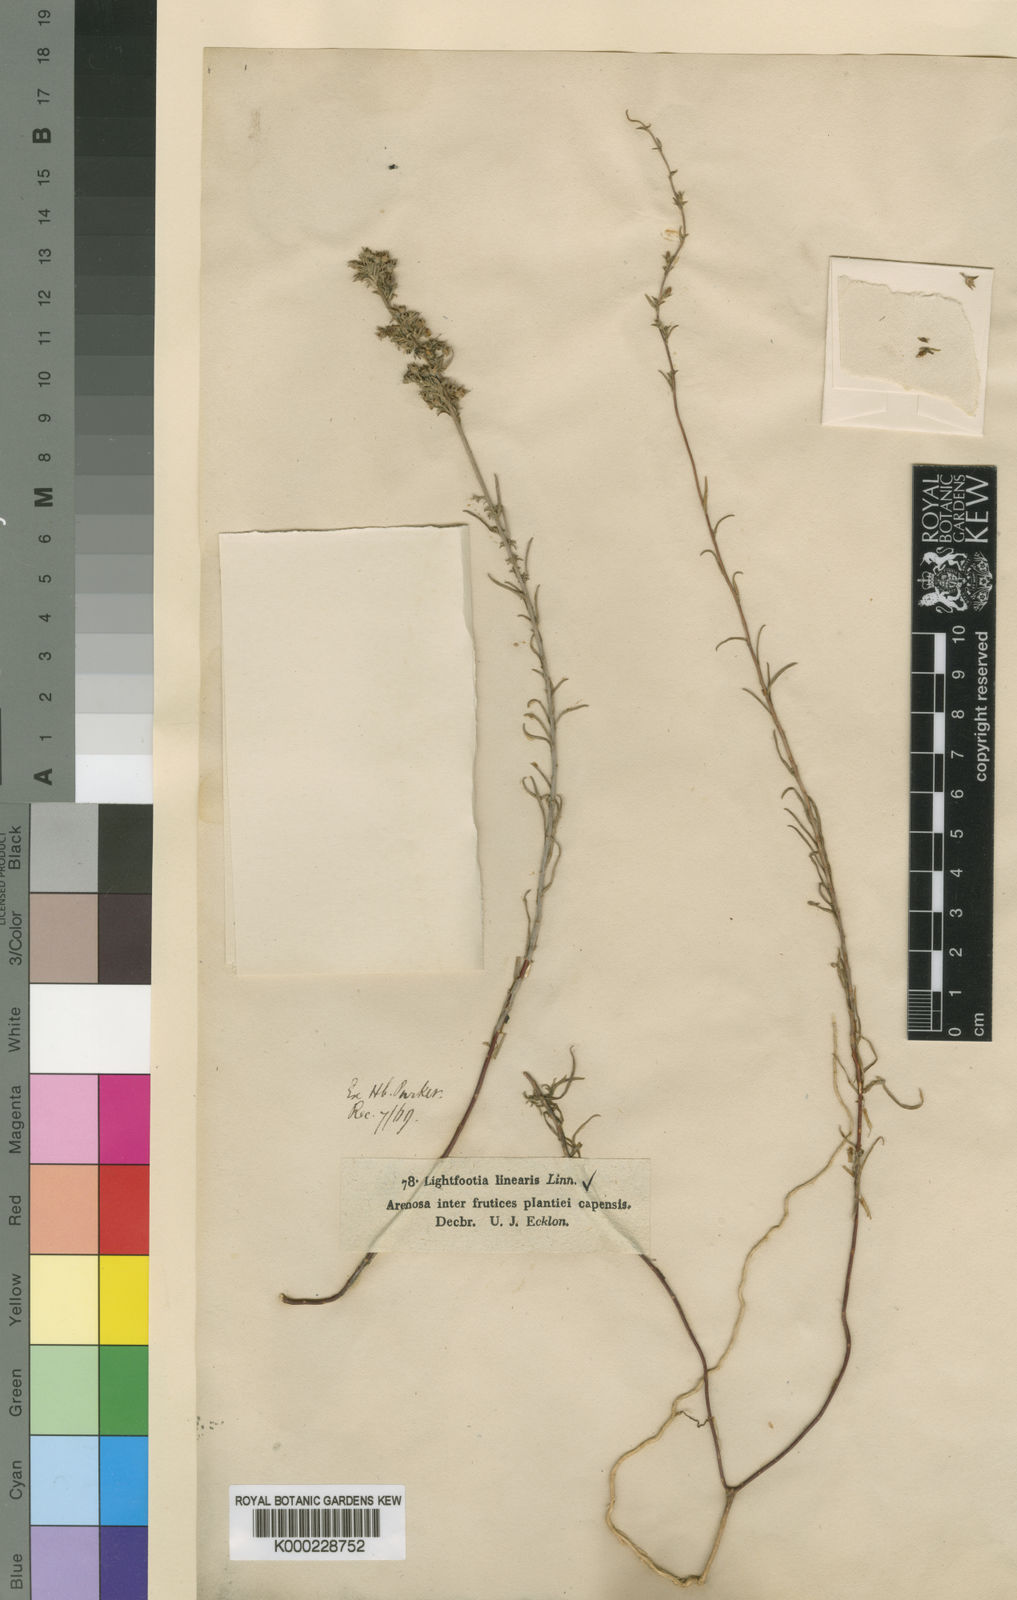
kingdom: Plantae
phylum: Tracheophyta
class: Magnoliopsida
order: Asterales
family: Campanulaceae
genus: Wahlenbergia
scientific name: Wahlenbergia longifolia
